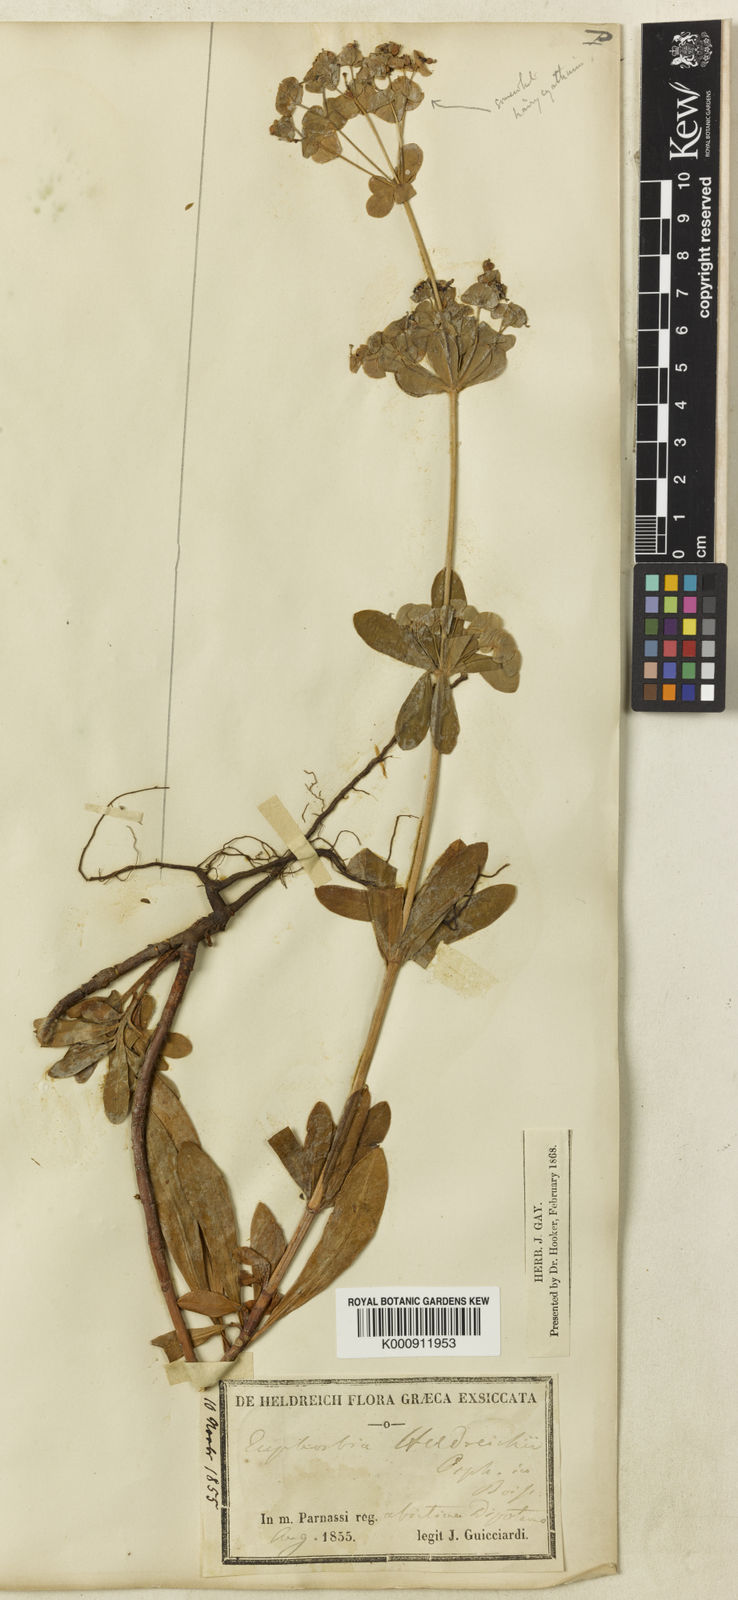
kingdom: Plantae
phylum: Tracheophyta
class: Magnoliopsida
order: Malpighiales
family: Euphorbiaceae
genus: Euphorbia
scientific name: Euphorbia heldreichii
